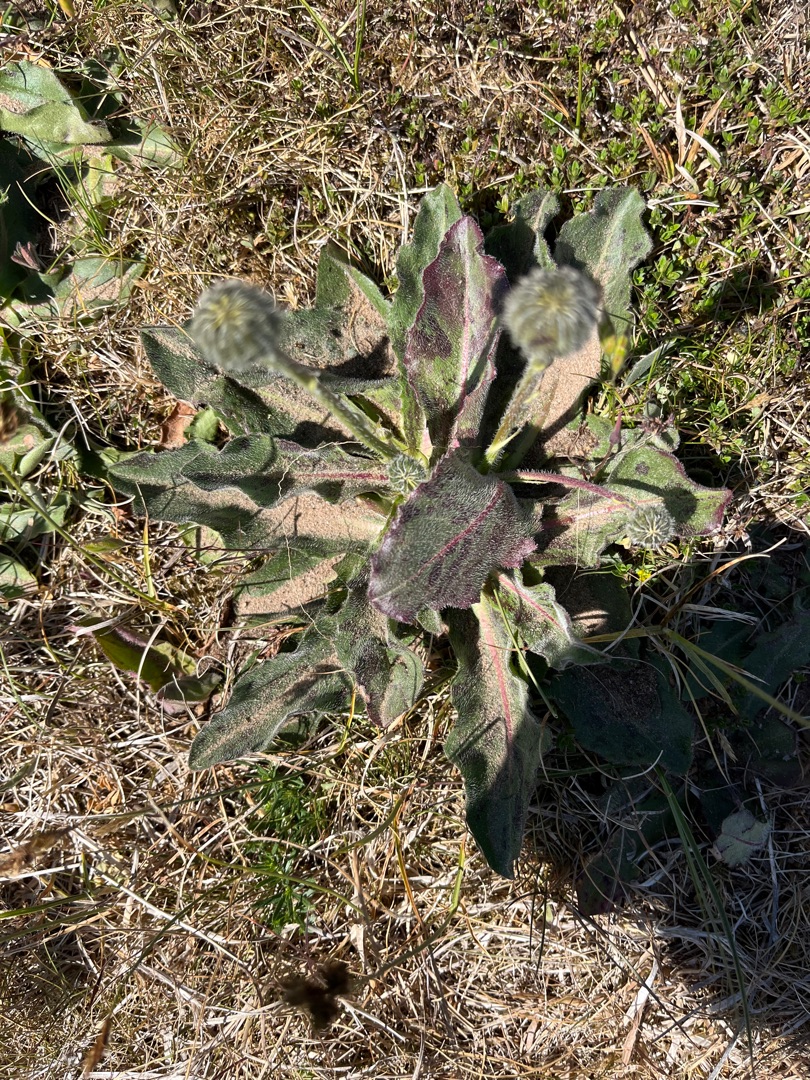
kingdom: Plantae
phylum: Tracheophyta
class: Magnoliopsida
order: Asterales
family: Asteraceae
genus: Trommsdorffia
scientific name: Trommsdorffia maculata
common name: Plettet kongepen
